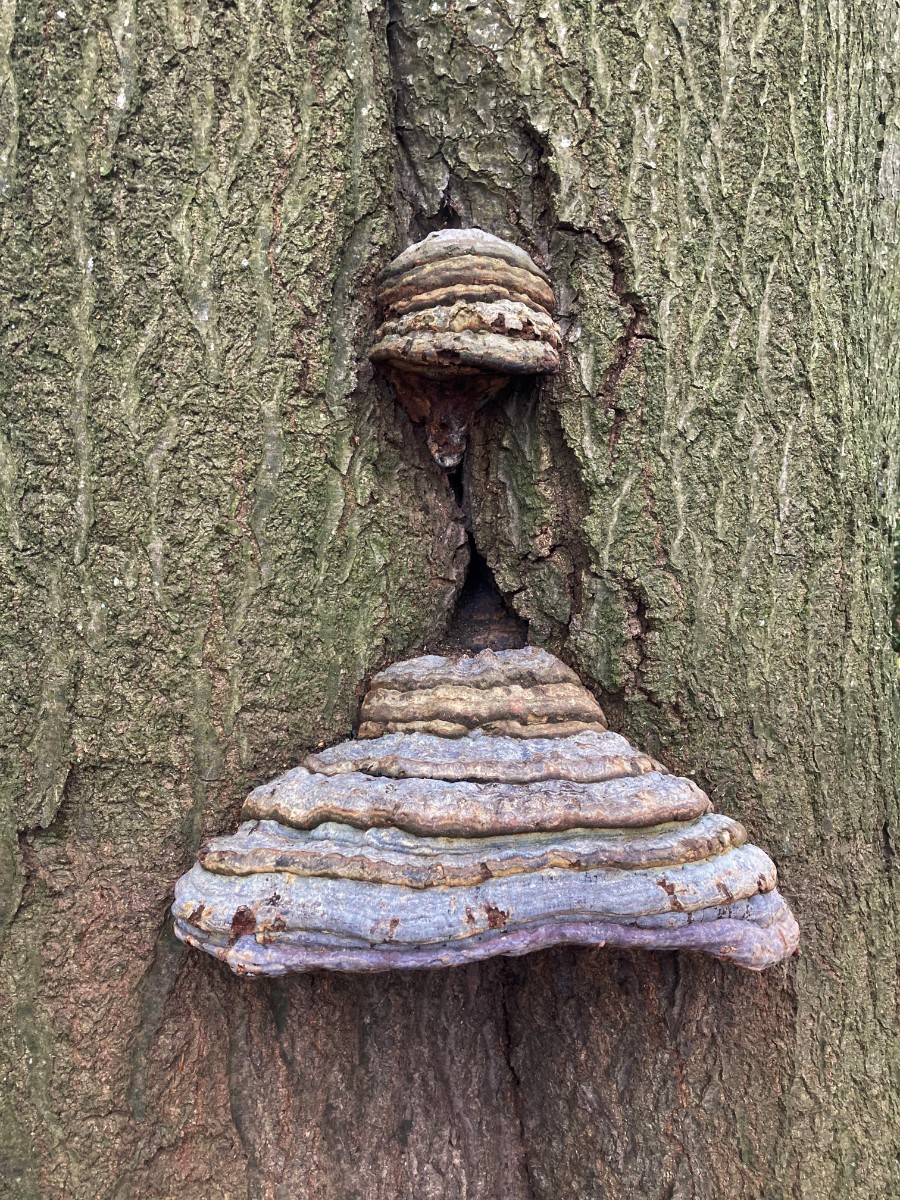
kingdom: Fungi
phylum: Basidiomycota
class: Agaricomycetes
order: Polyporales
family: Polyporaceae
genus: Ganoderma
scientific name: Ganoderma pfeifferi
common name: kobberrød lakporesvamp
